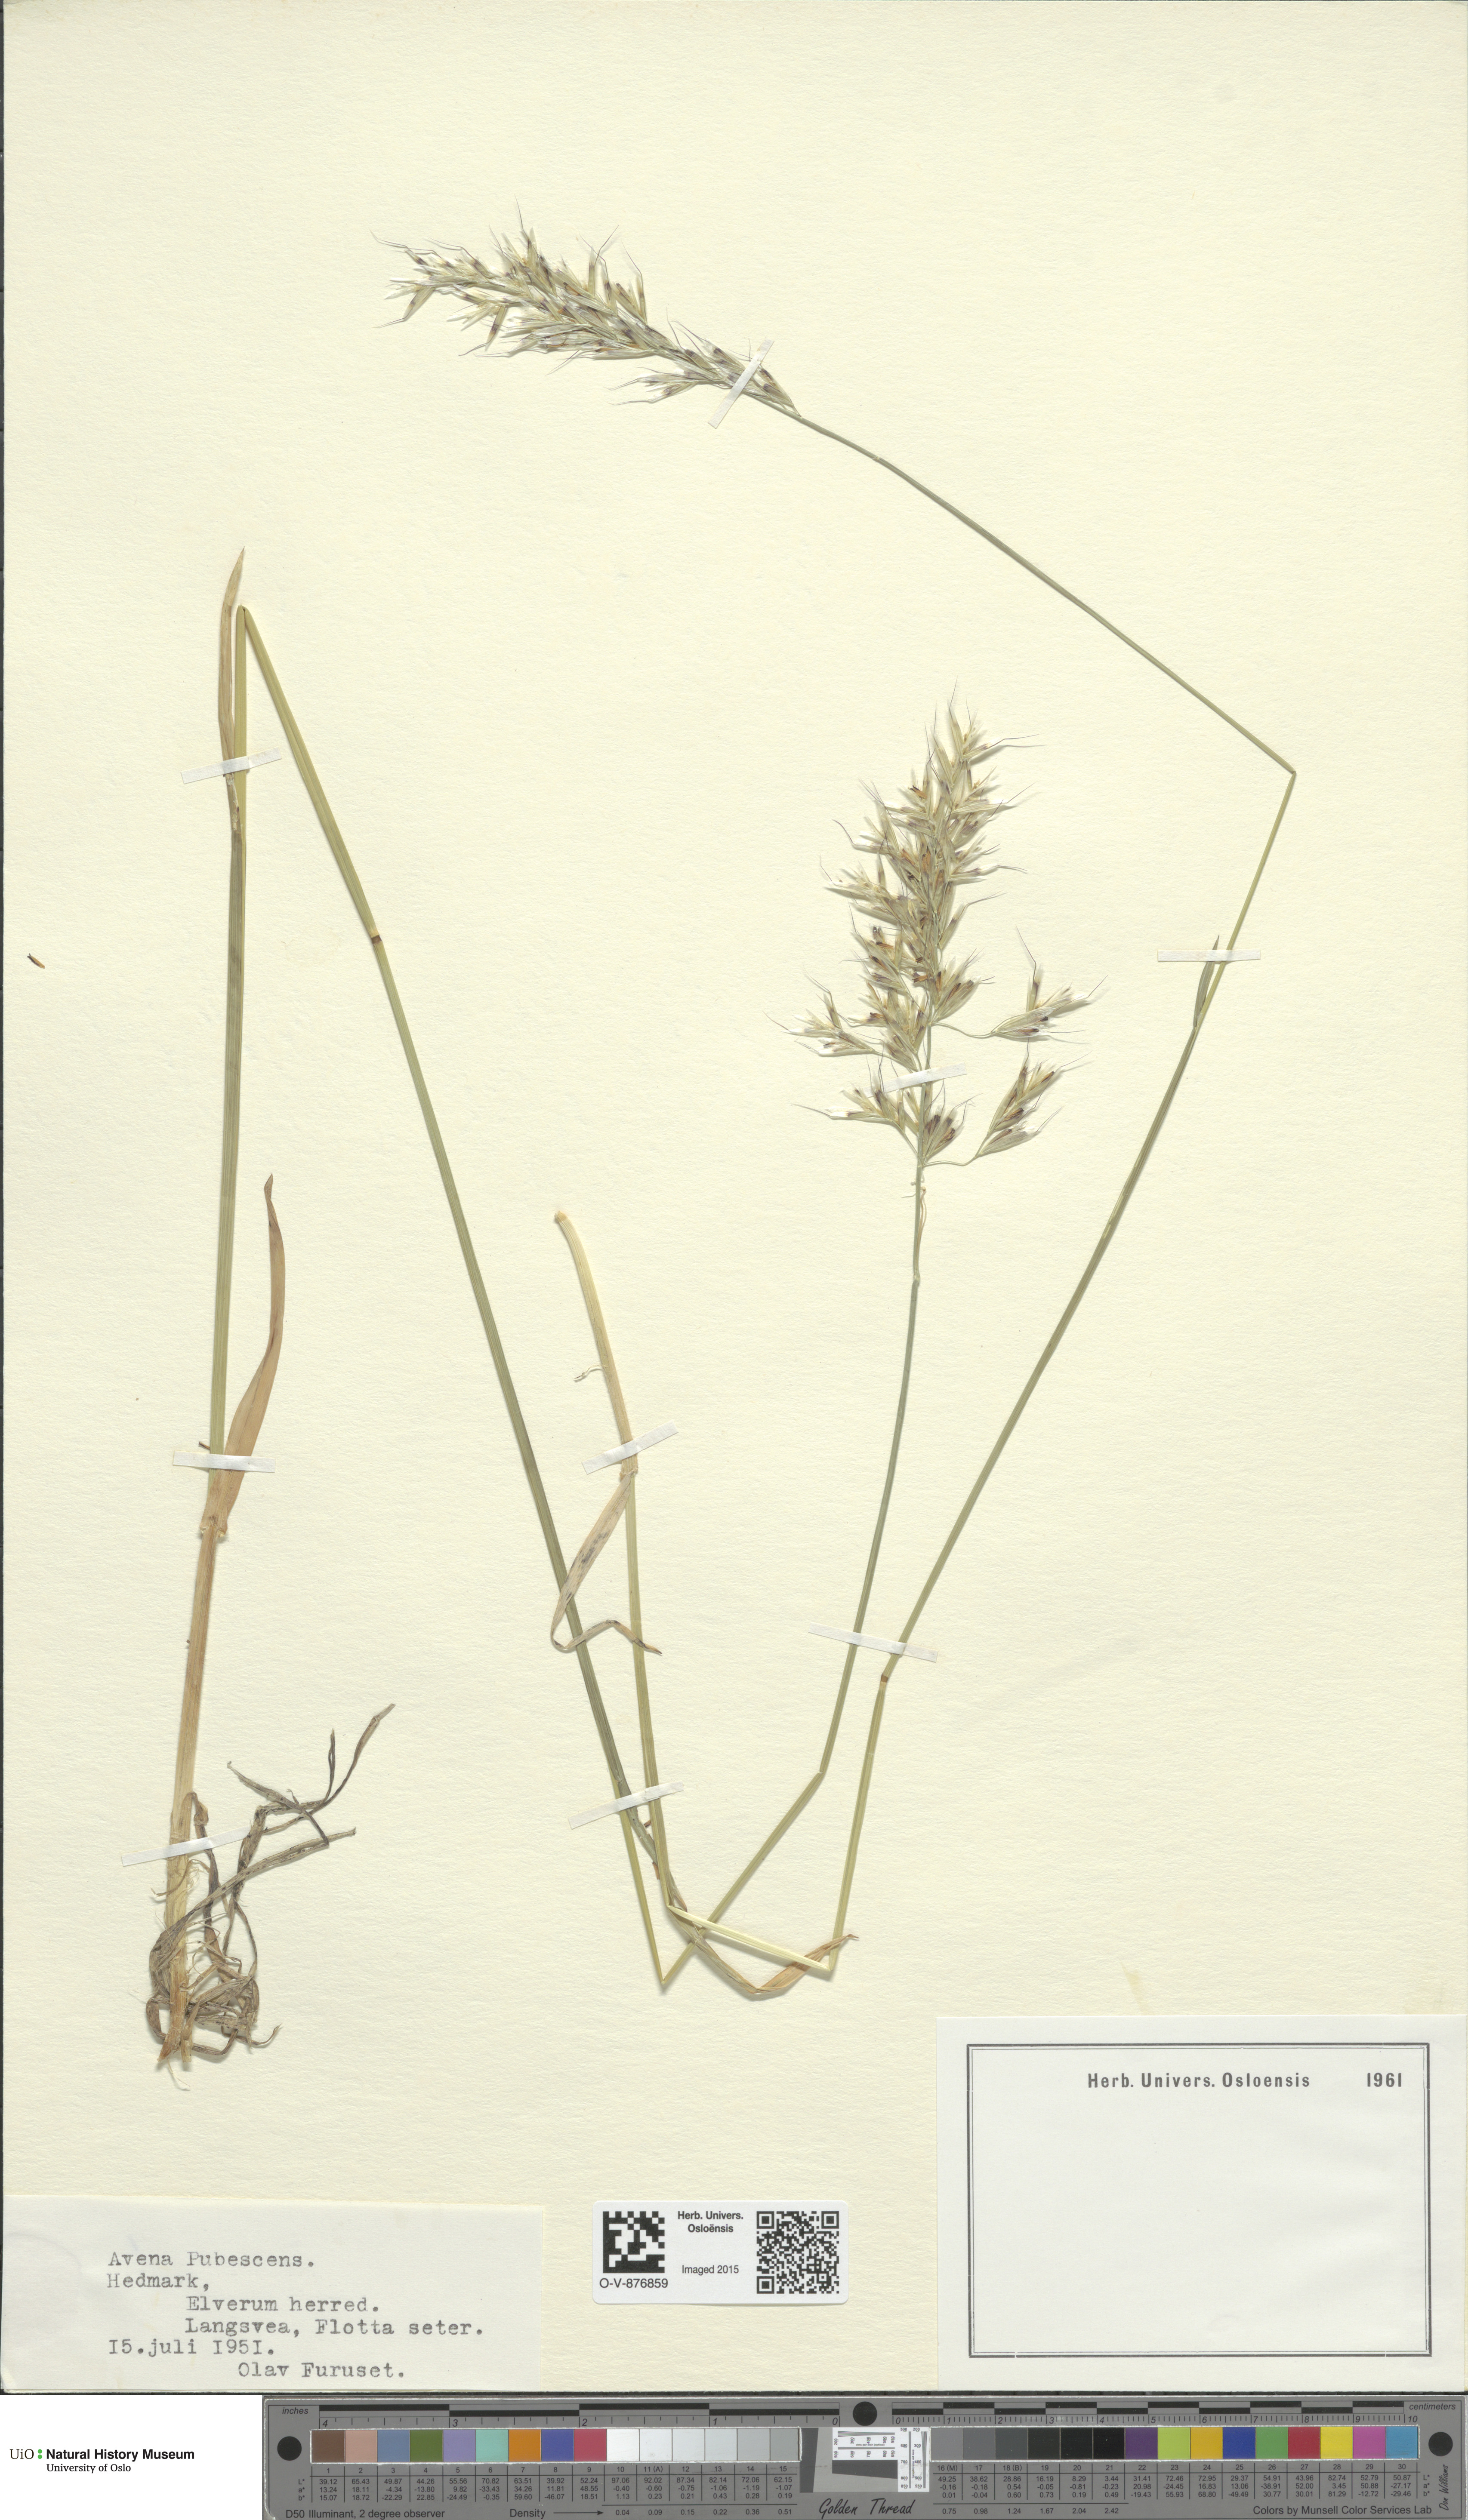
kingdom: Plantae
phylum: Tracheophyta
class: Liliopsida
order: Poales
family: Poaceae
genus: Avenula
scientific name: Avenula pubescens
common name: Downy alpine oatgrass
